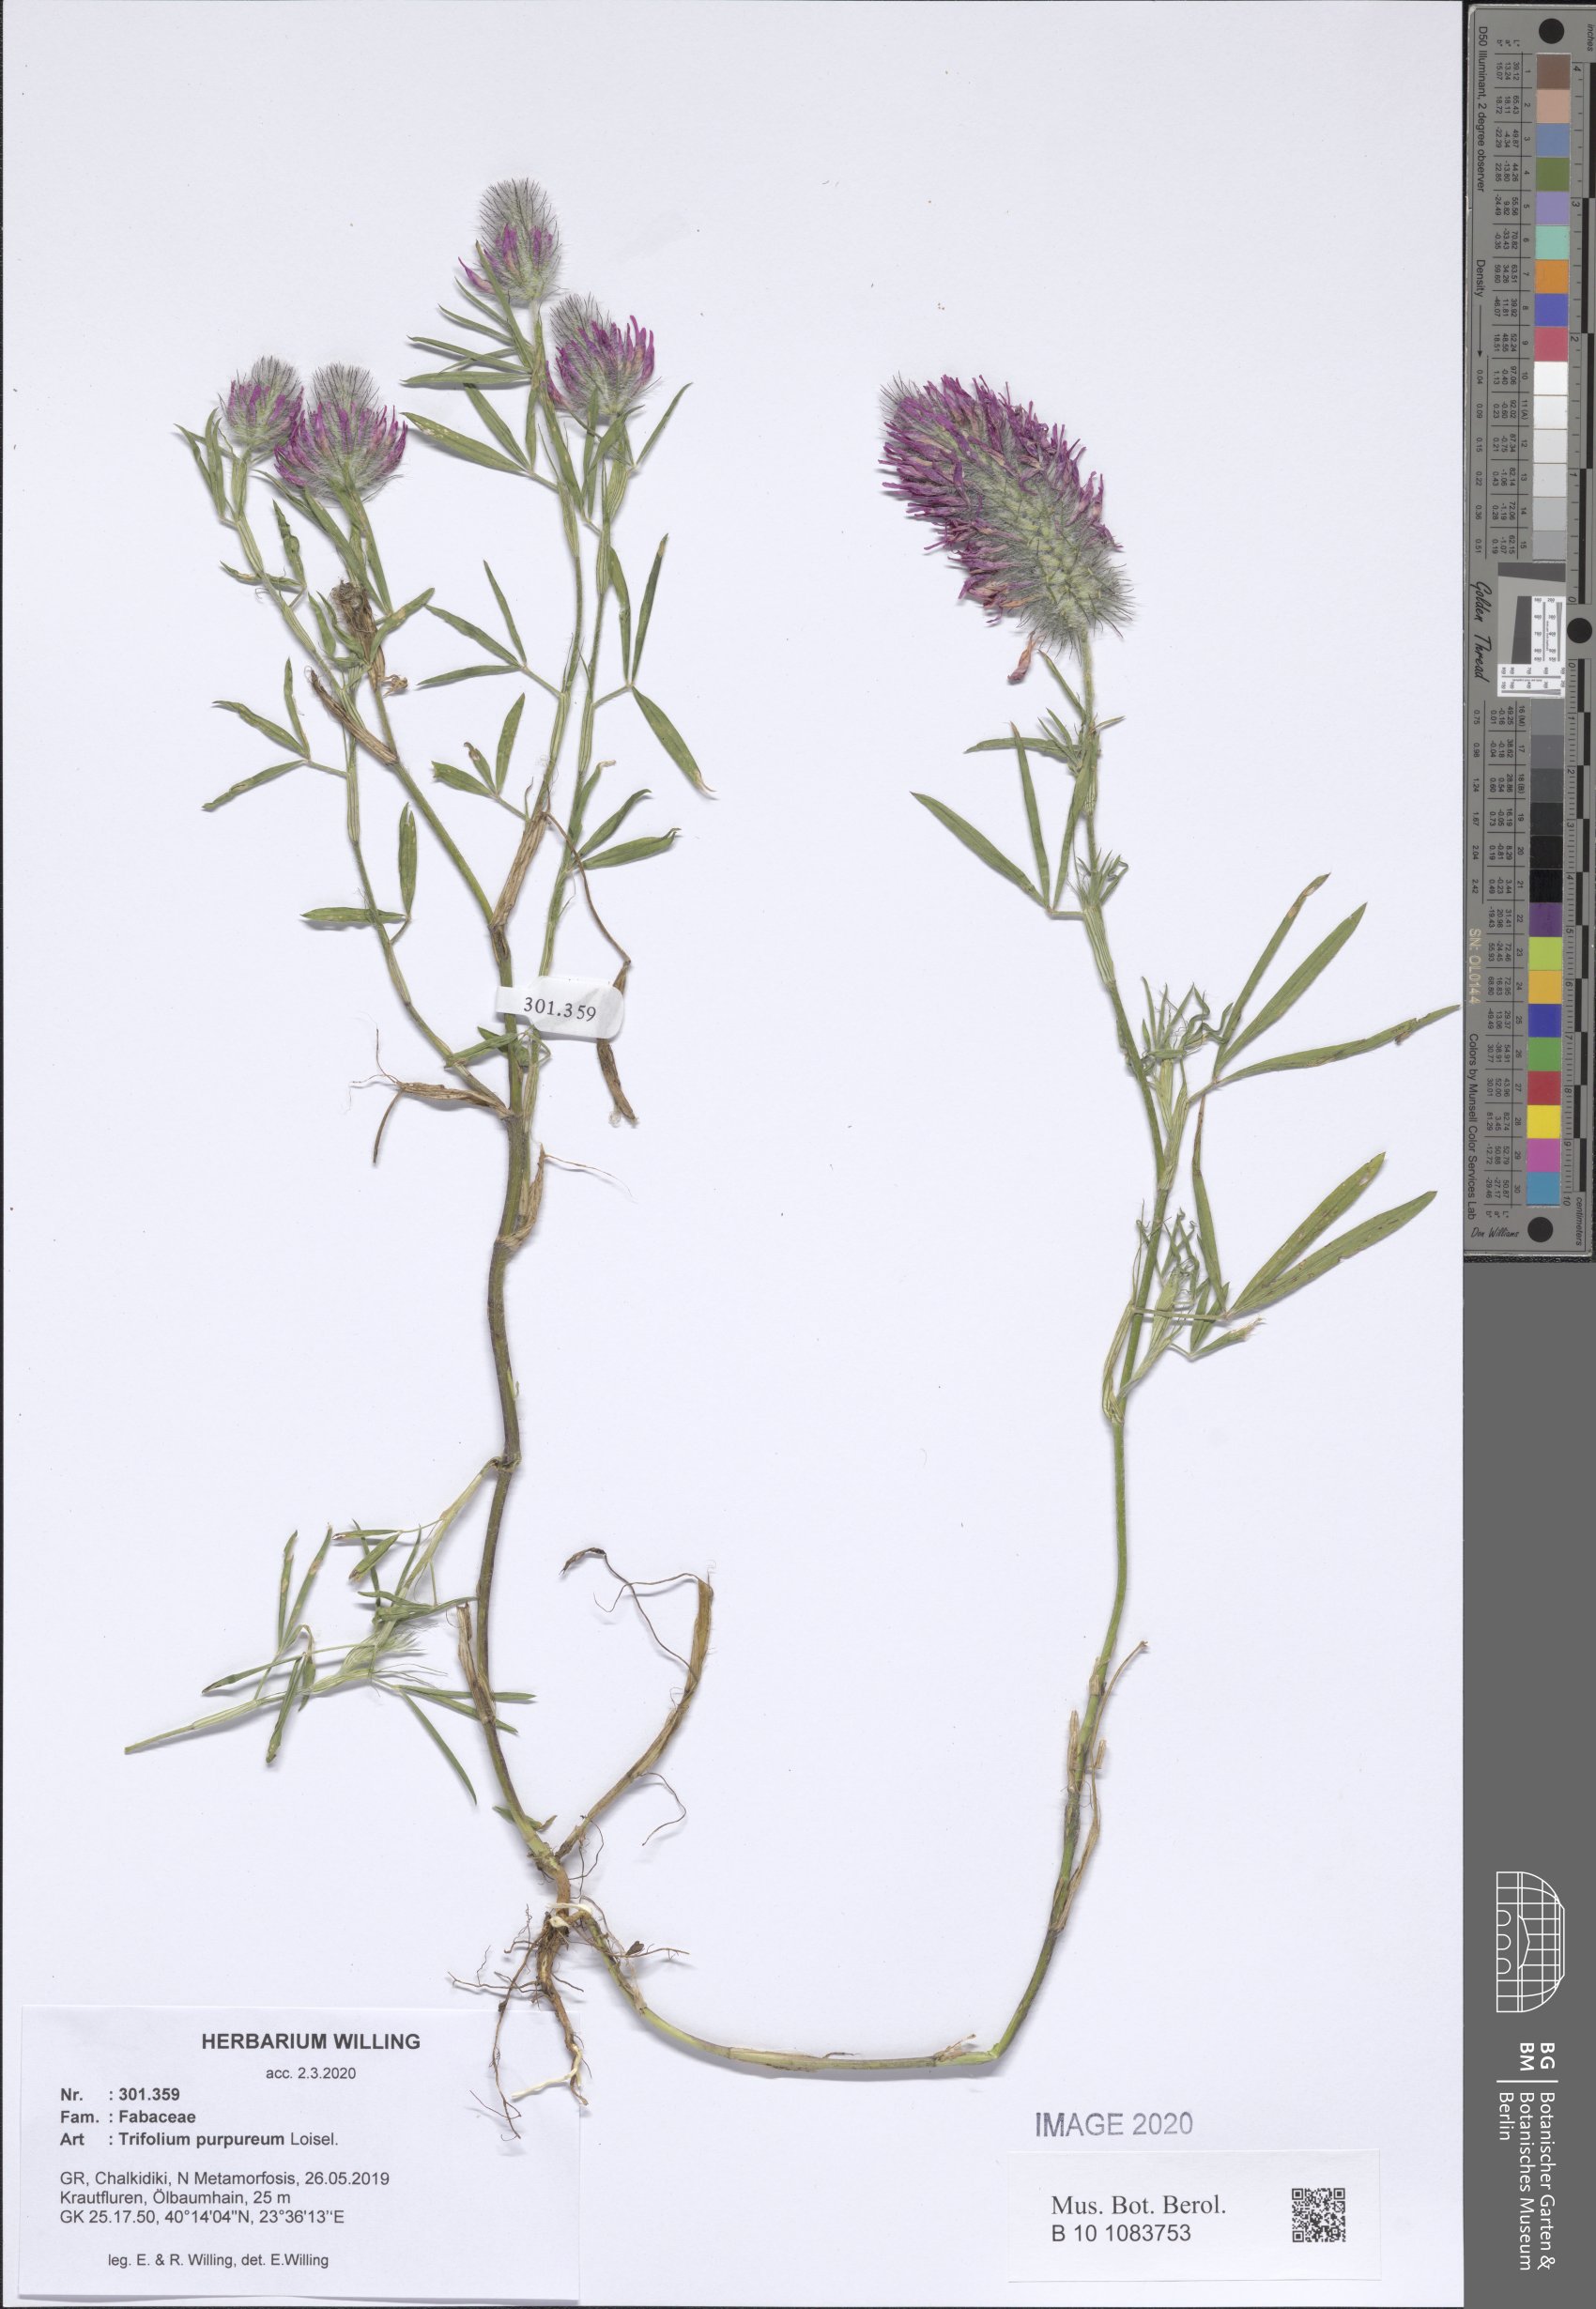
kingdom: Plantae
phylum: Tracheophyta
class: Magnoliopsida
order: Fabales
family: Fabaceae
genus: Trifolium
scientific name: Trifolium purpureum
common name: Purple clover
